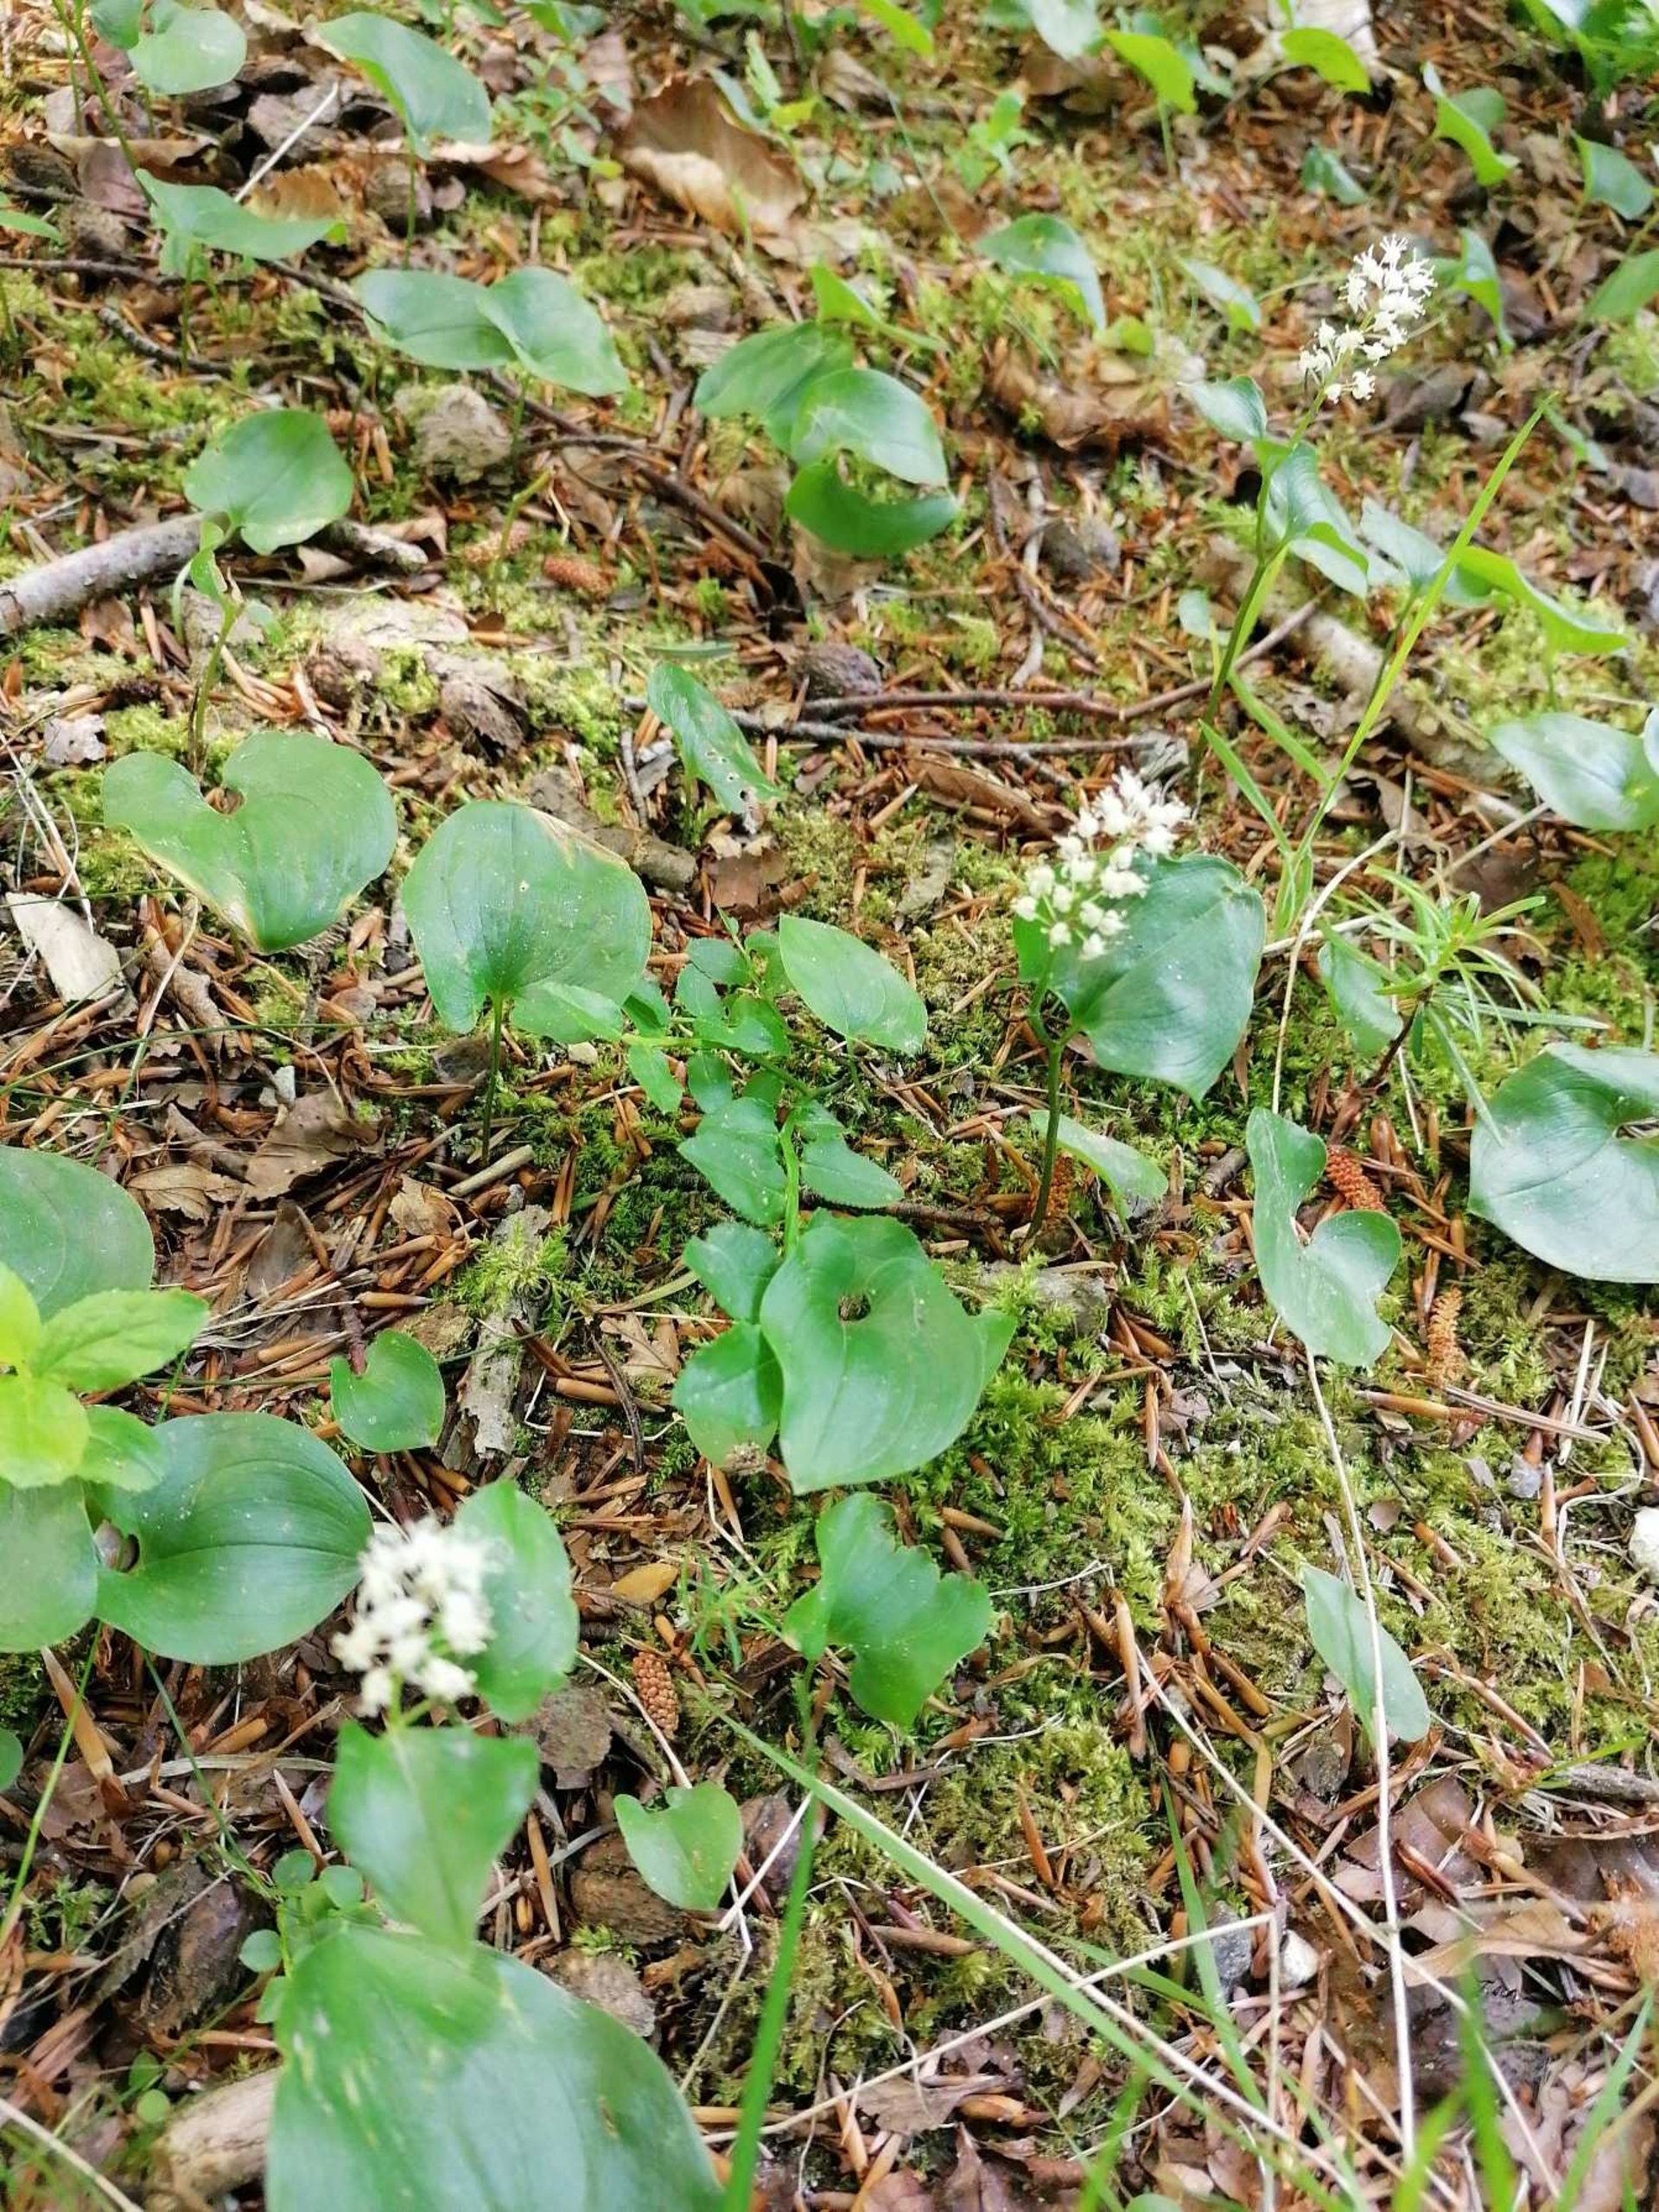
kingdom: Plantae
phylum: Tracheophyta
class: Liliopsida
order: Asparagales
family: Asparagaceae
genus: Maianthemum
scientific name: Maianthemum bifolium
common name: Majblomst
